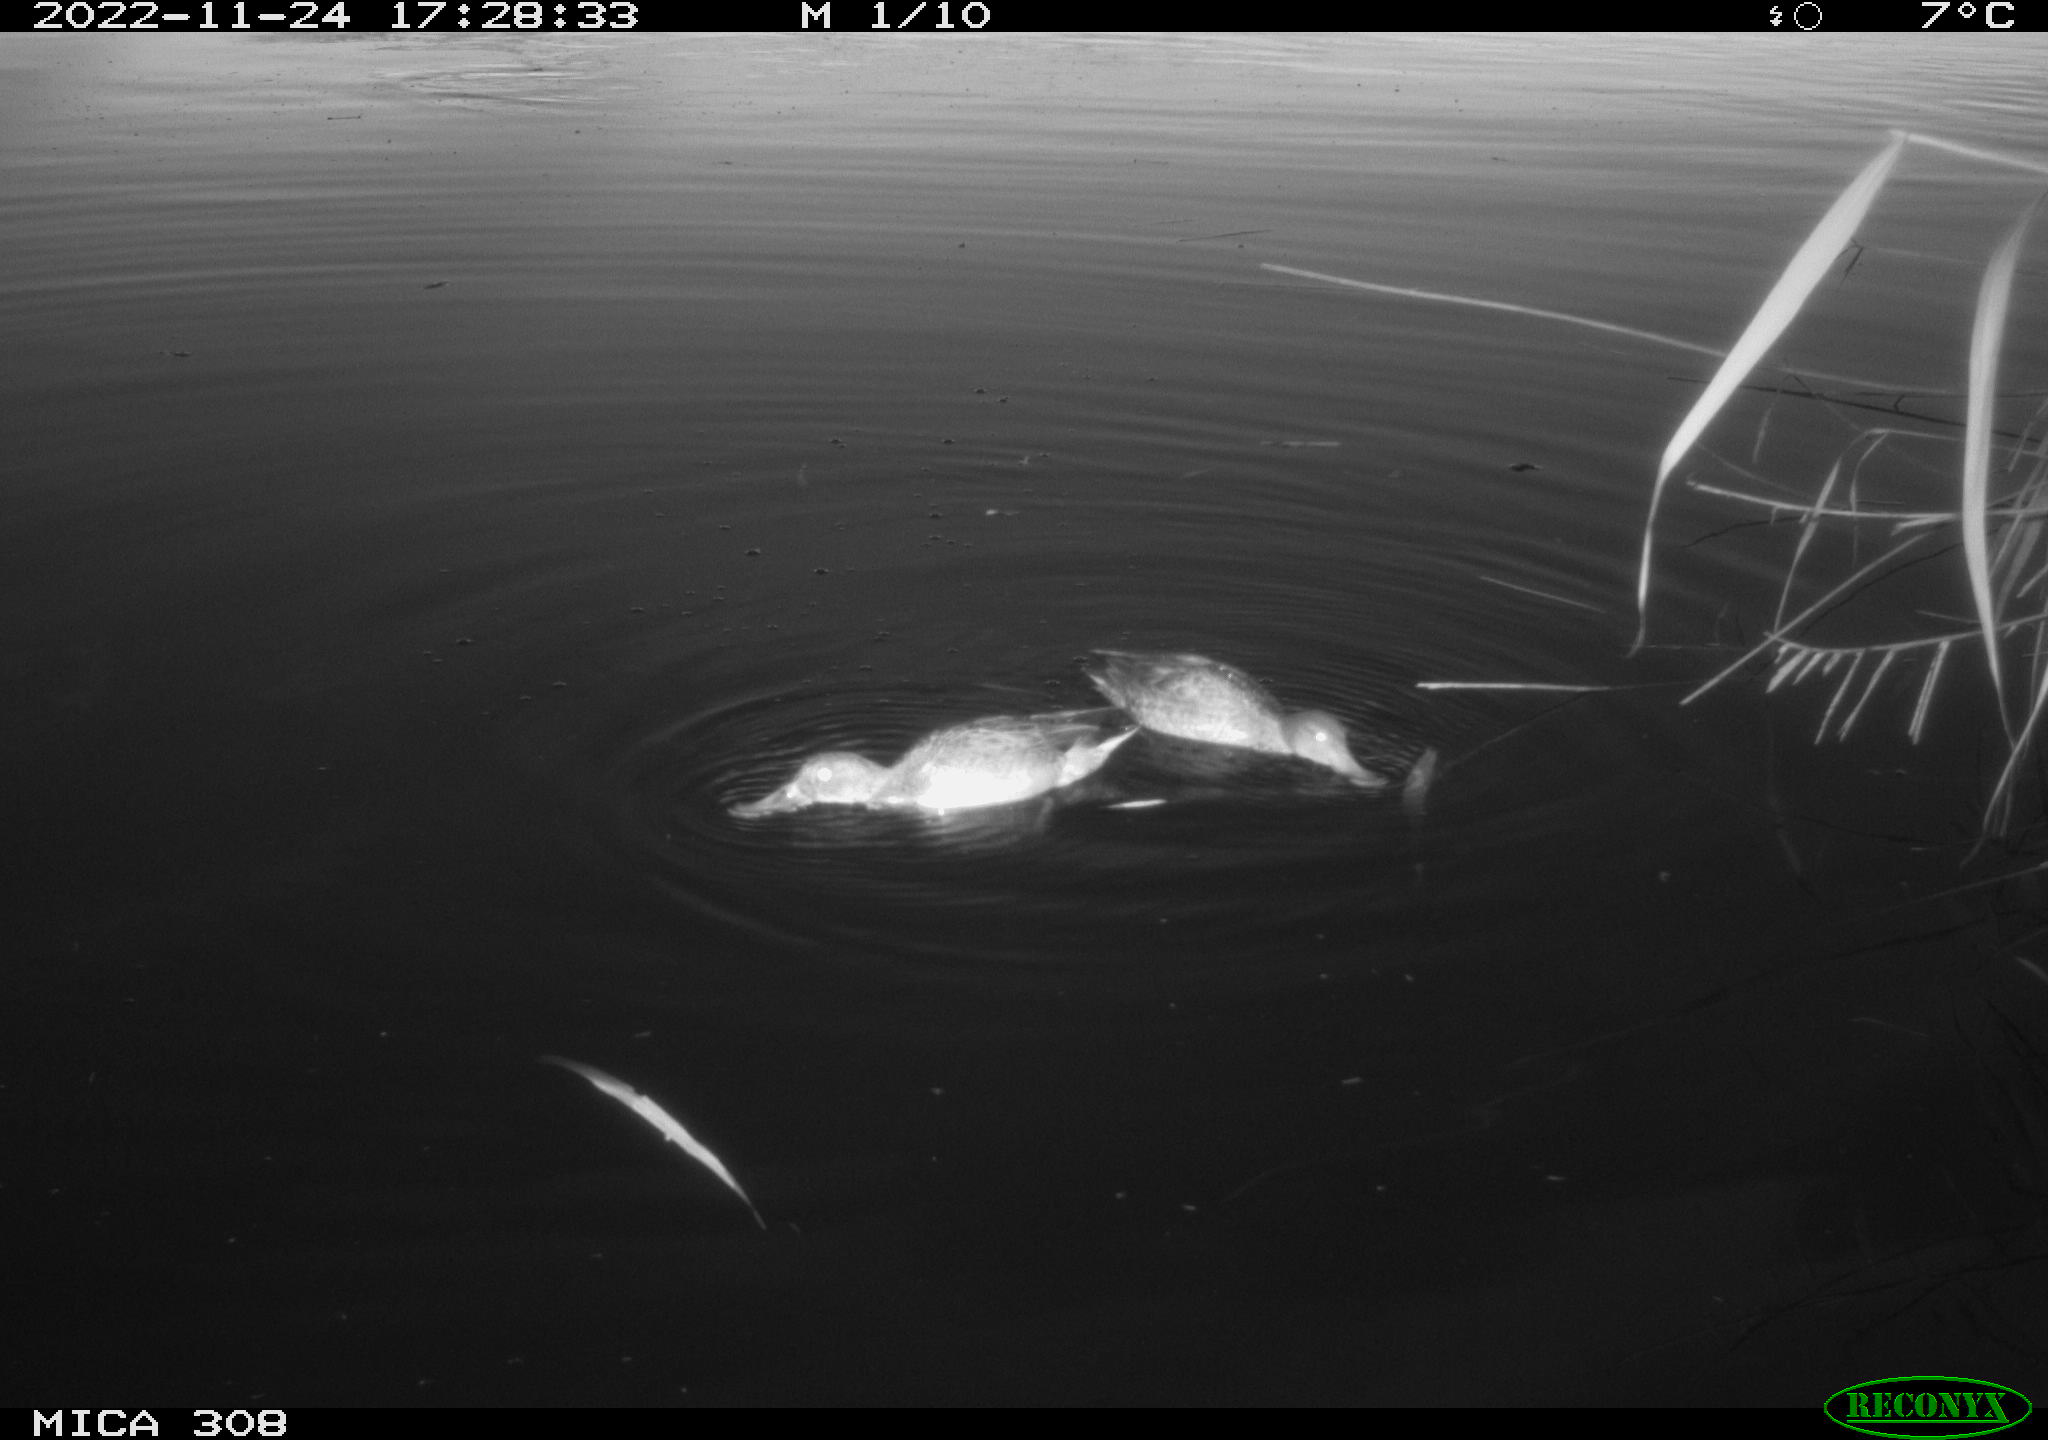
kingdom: Animalia
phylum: Chordata
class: Aves
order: Anseriformes
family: Anatidae
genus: Anas
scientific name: Anas
